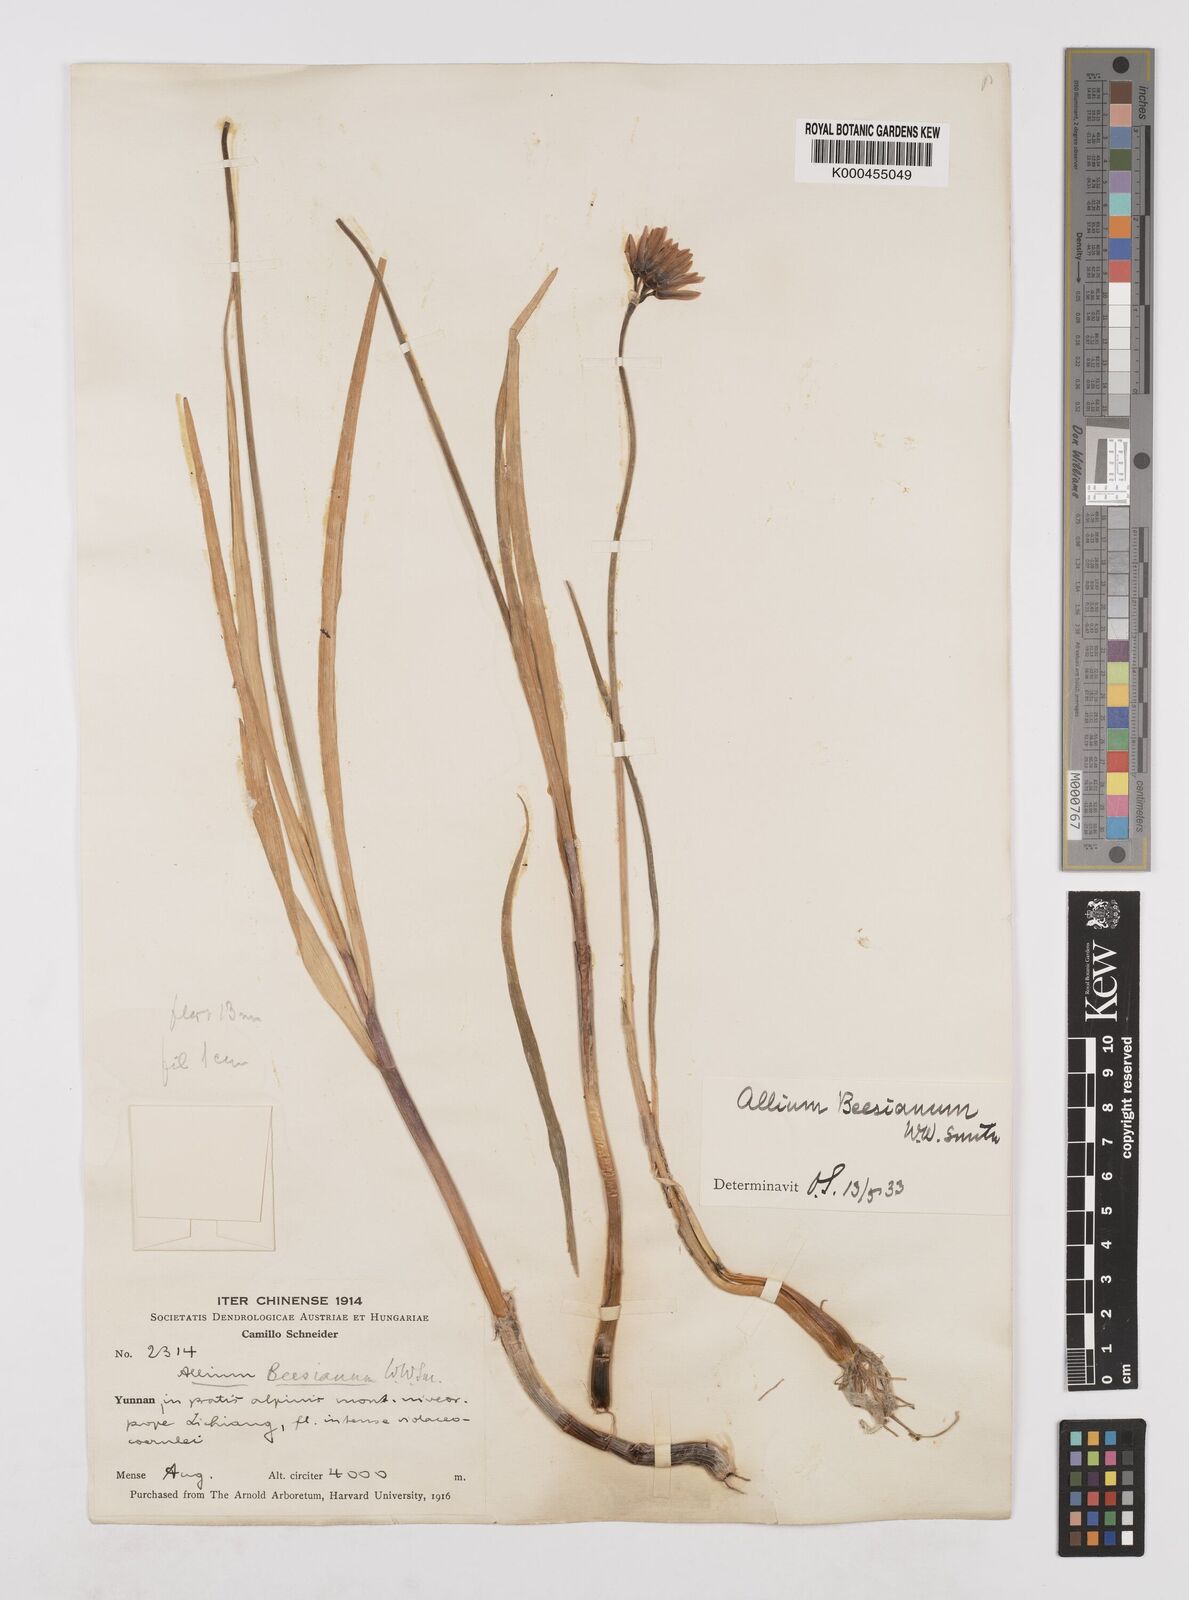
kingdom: Plantae
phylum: Tracheophyta
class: Liliopsida
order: Asparagales
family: Amaryllidaceae
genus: Allium
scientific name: Allium beesianum
